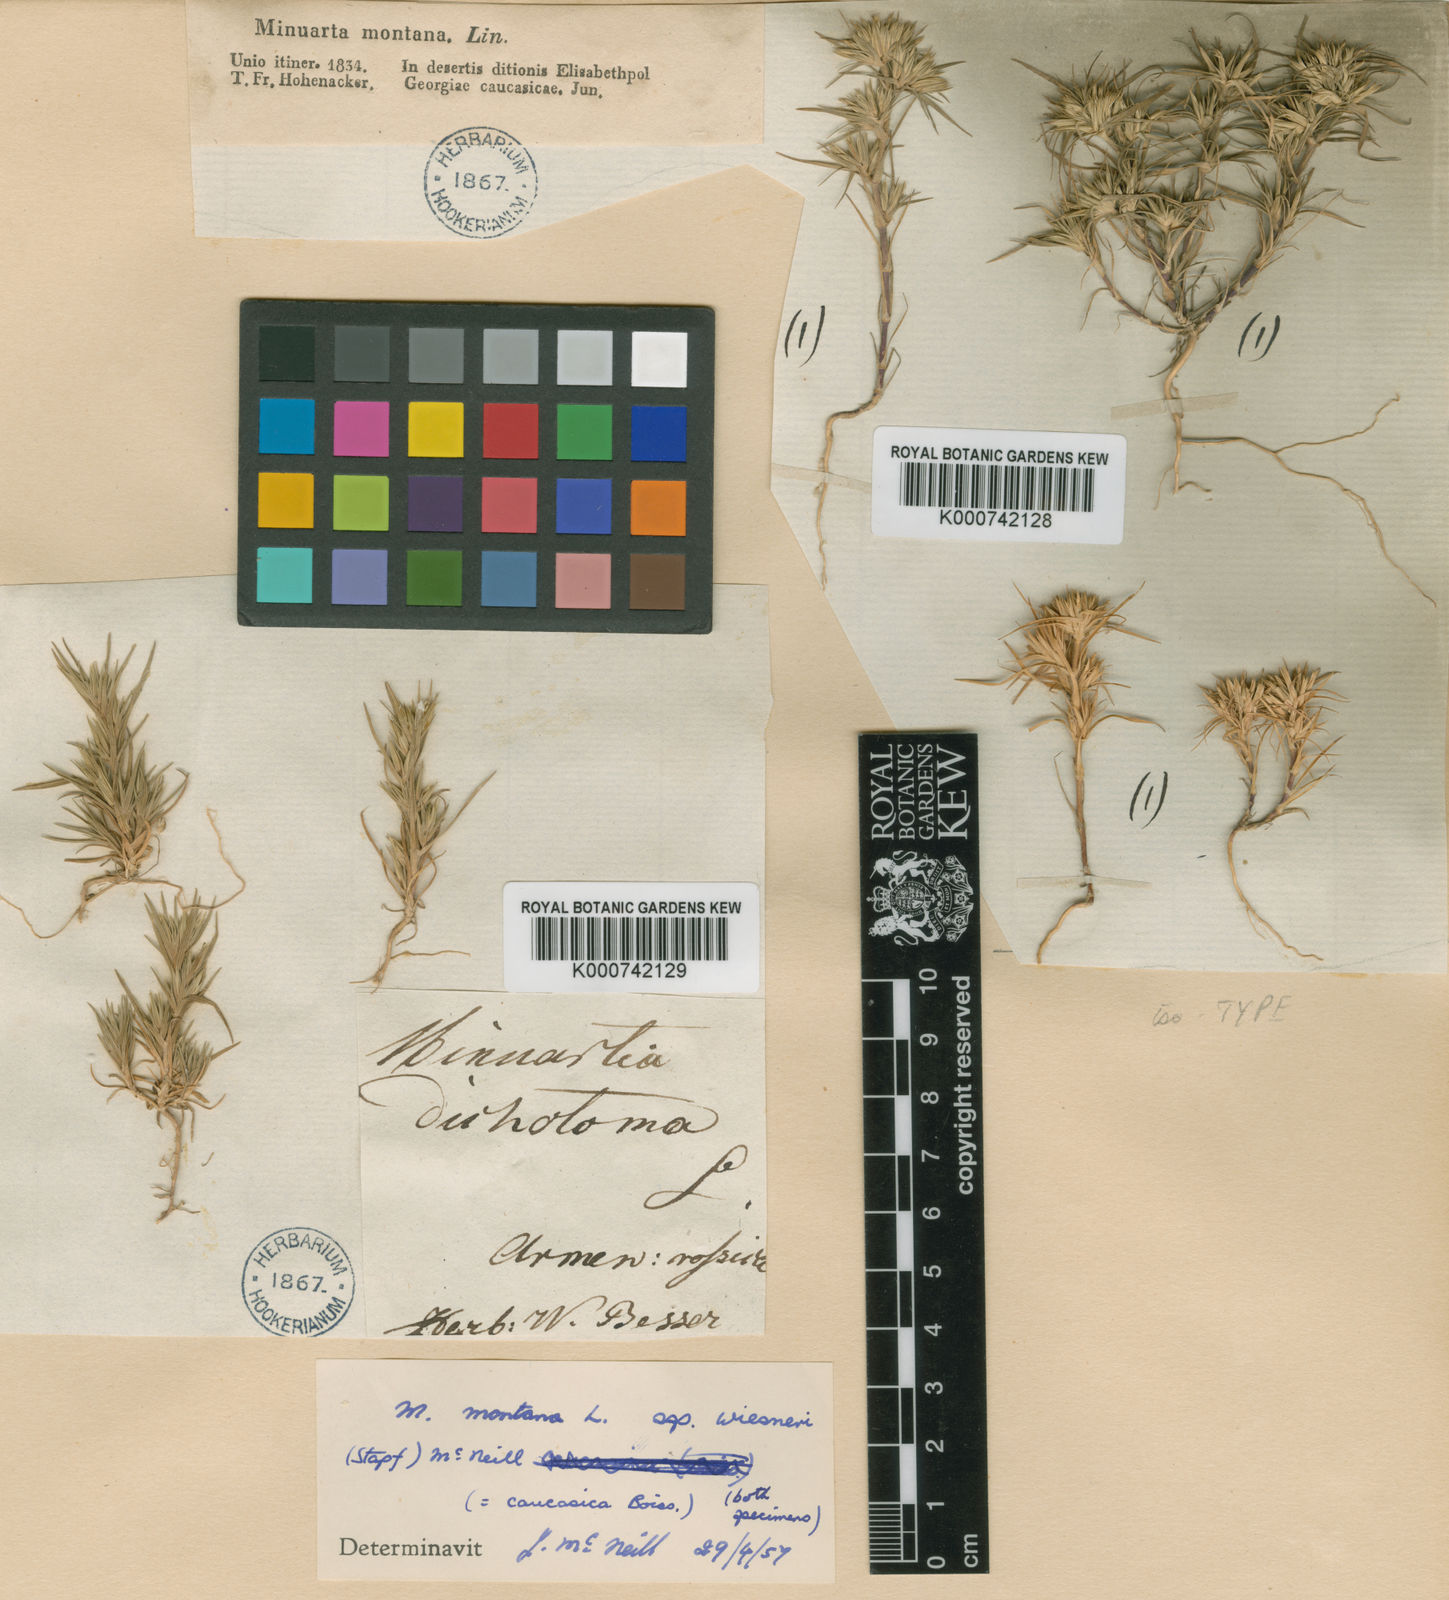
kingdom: Plantae
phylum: Tracheophyta
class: Magnoliopsida
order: Caryophyllales
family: Caryophyllaceae
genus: Minuartia
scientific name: Minuartia montana
